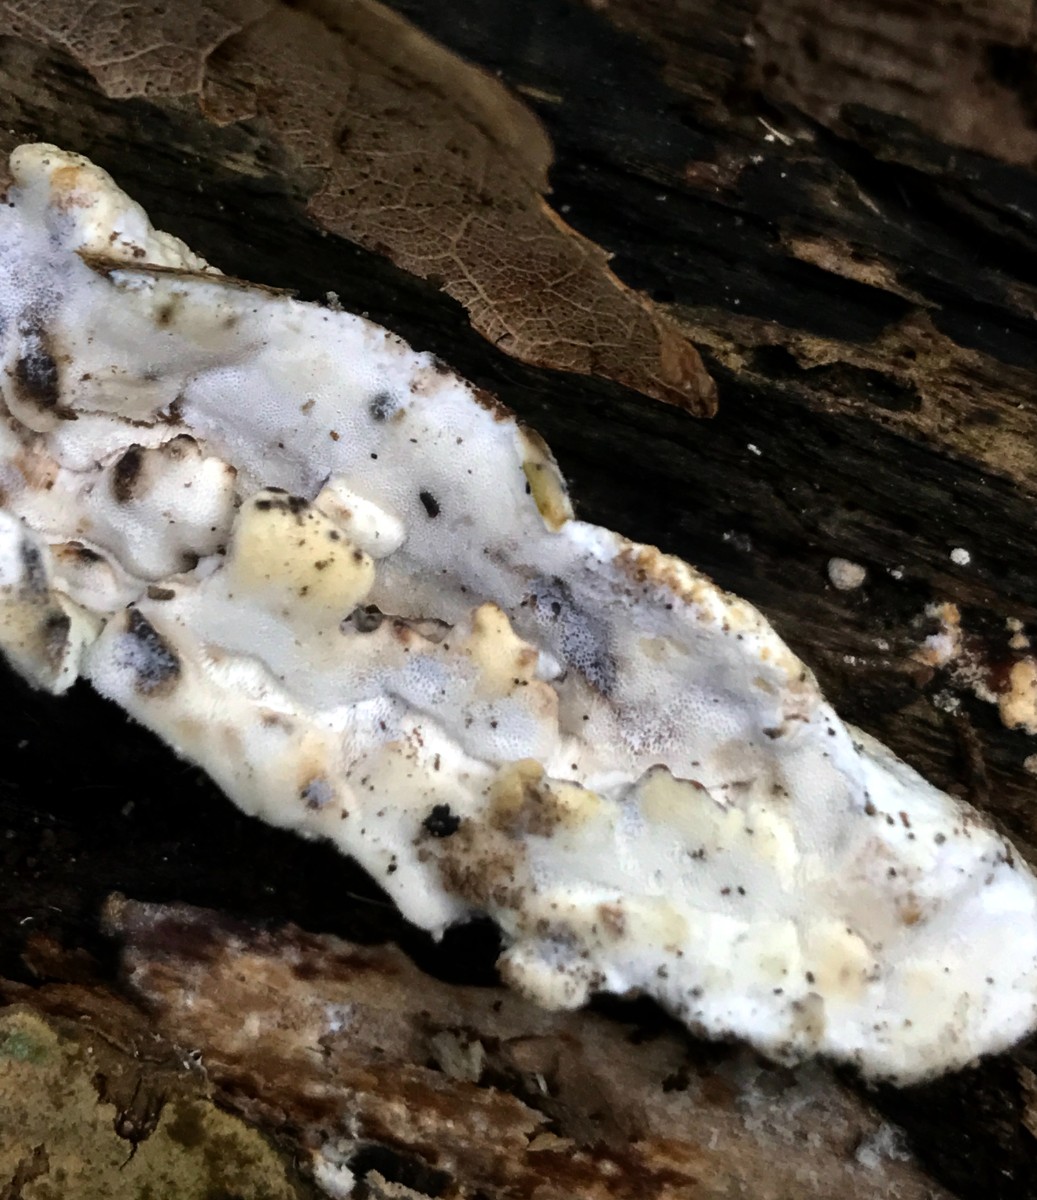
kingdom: Fungi
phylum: Basidiomycota
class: Agaricomycetes
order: Polyporales
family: Incrustoporiaceae
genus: Skeletocutis
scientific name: Skeletocutis nemoralis
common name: stor krystalporesvamp
